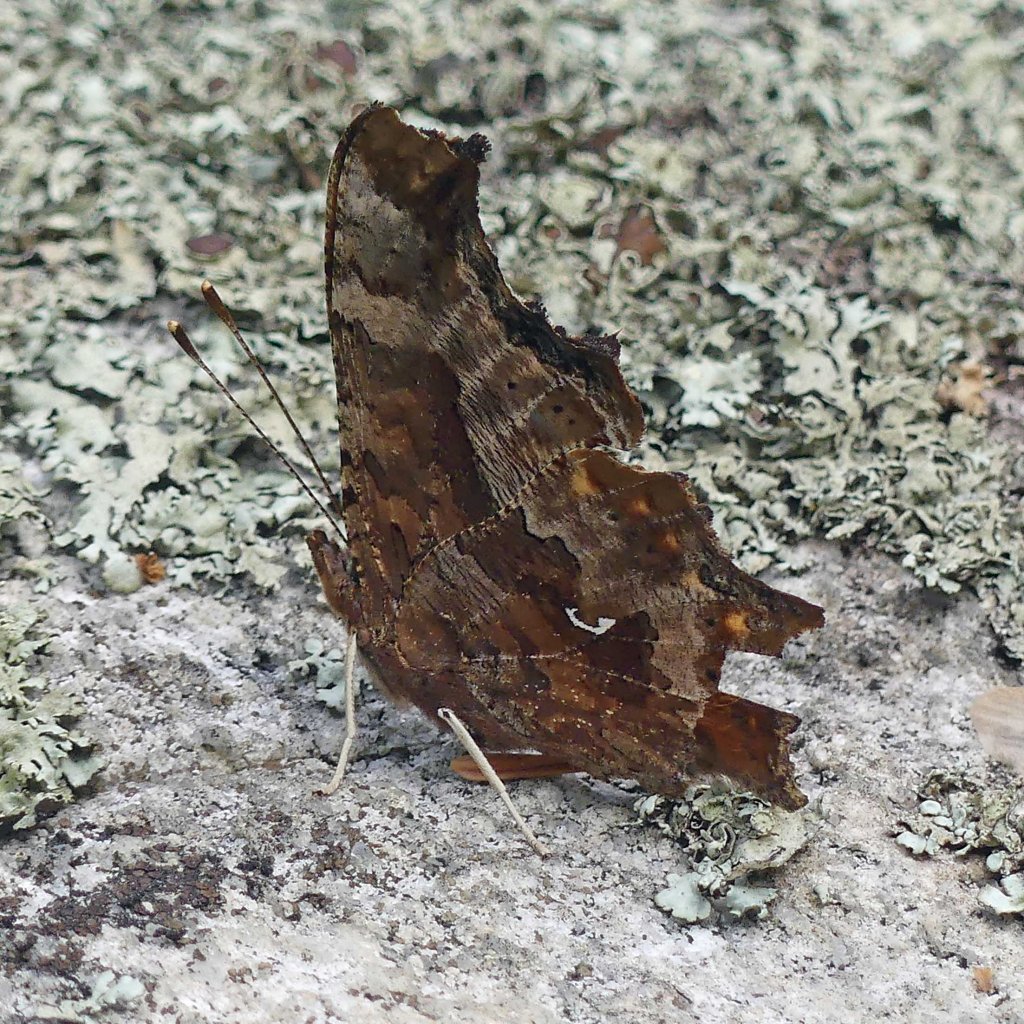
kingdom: Animalia
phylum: Arthropoda
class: Insecta
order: Lepidoptera
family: Nymphalidae
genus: Polygonia
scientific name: Polygonia comma
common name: Eastern Comma
